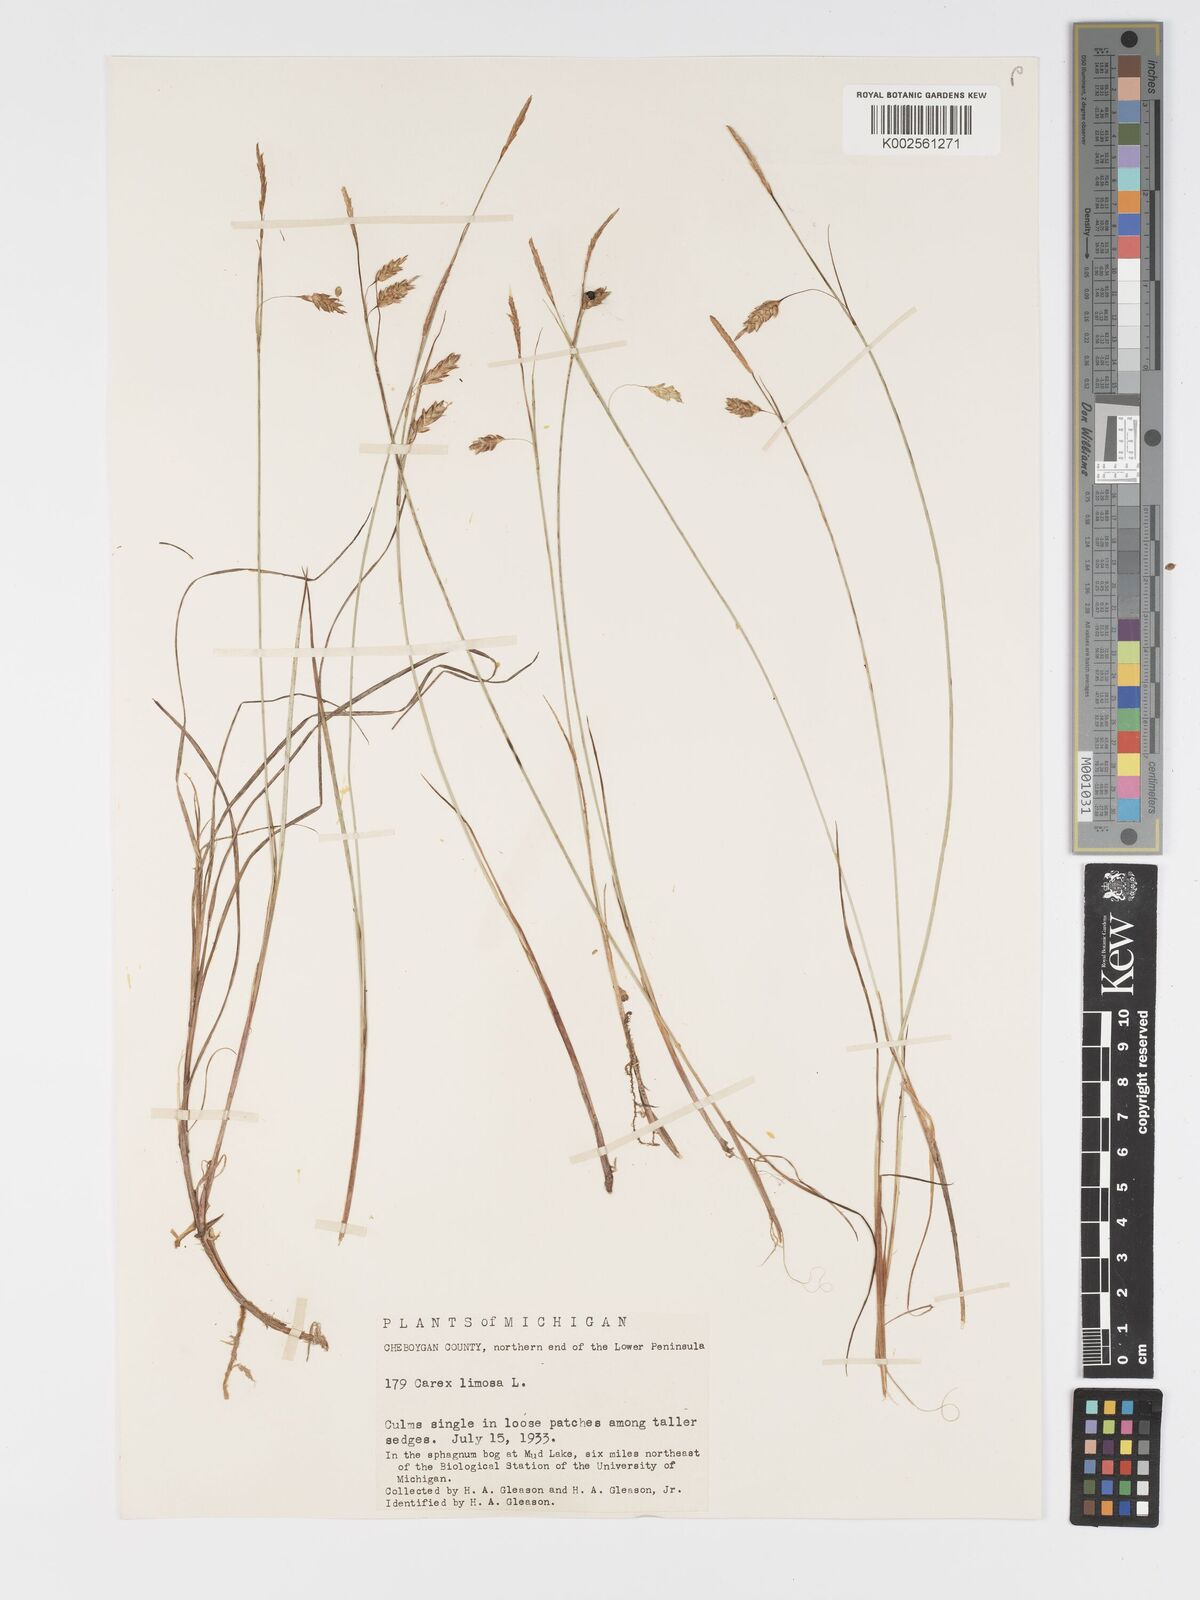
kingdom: Plantae
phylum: Tracheophyta
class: Liliopsida
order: Poales
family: Cyperaceae
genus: Carex
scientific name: Carex limosa
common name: Bog sedge
